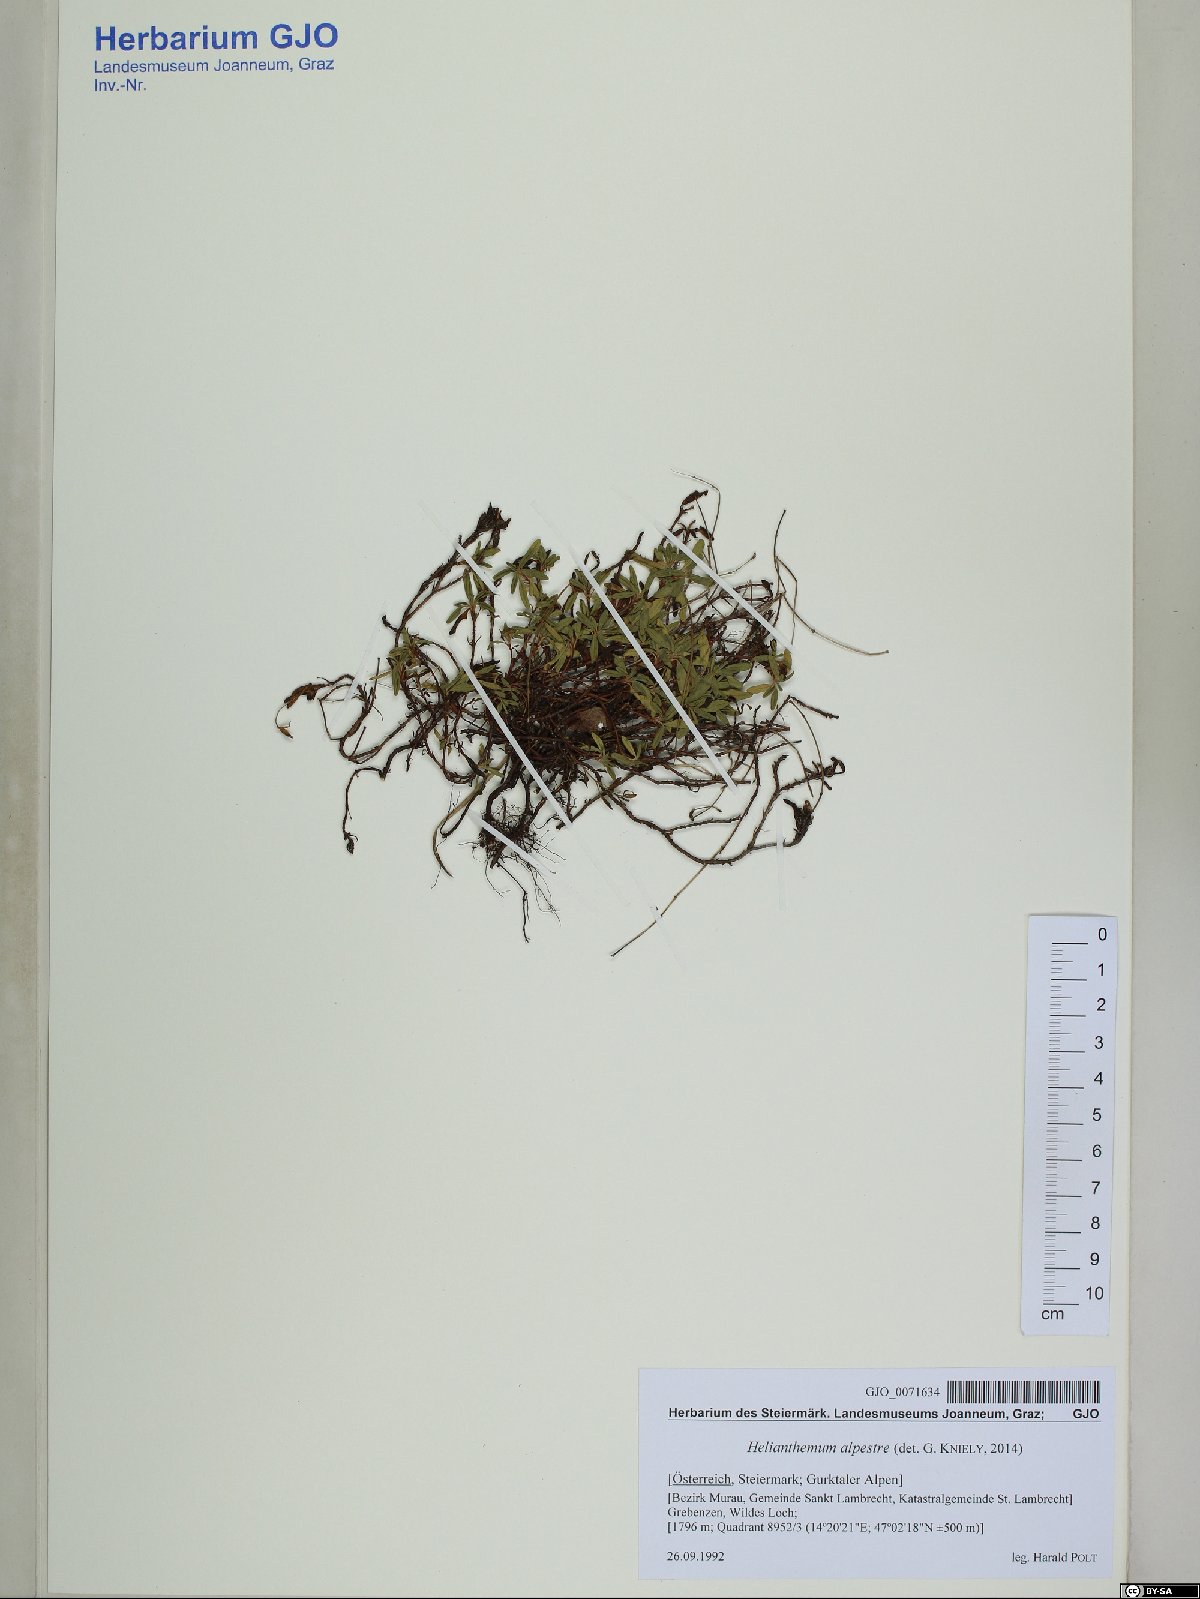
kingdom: Plantae
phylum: Tracheophyta
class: Magnoliopsida
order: Malvales
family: Cistaceae
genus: Helianthemum
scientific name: Helianthemum alpestre
